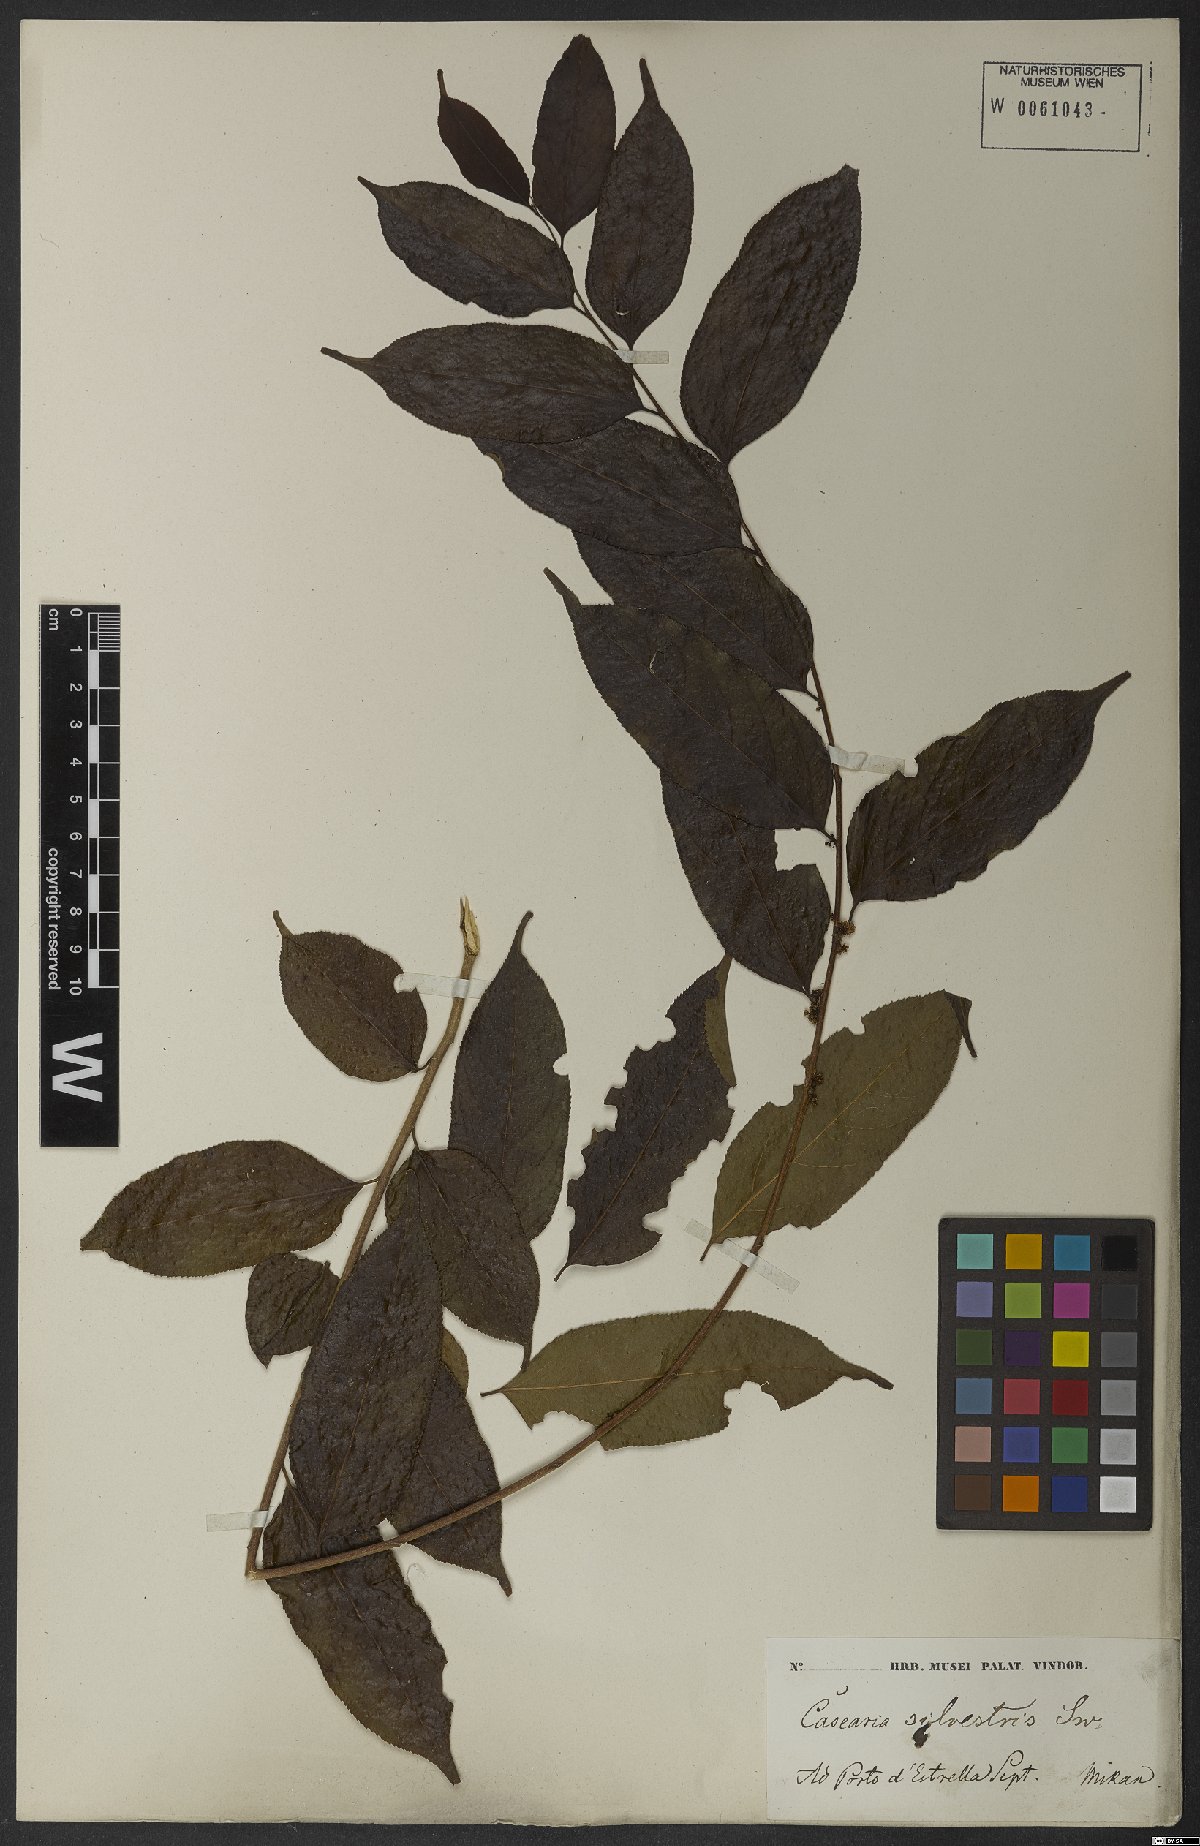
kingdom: Plantae
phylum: Tracheophyta
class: Magnoliopsida
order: Malpighiales
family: Salicaceae
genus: Casearia
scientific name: Casearia sylvestris
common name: Wild sage
